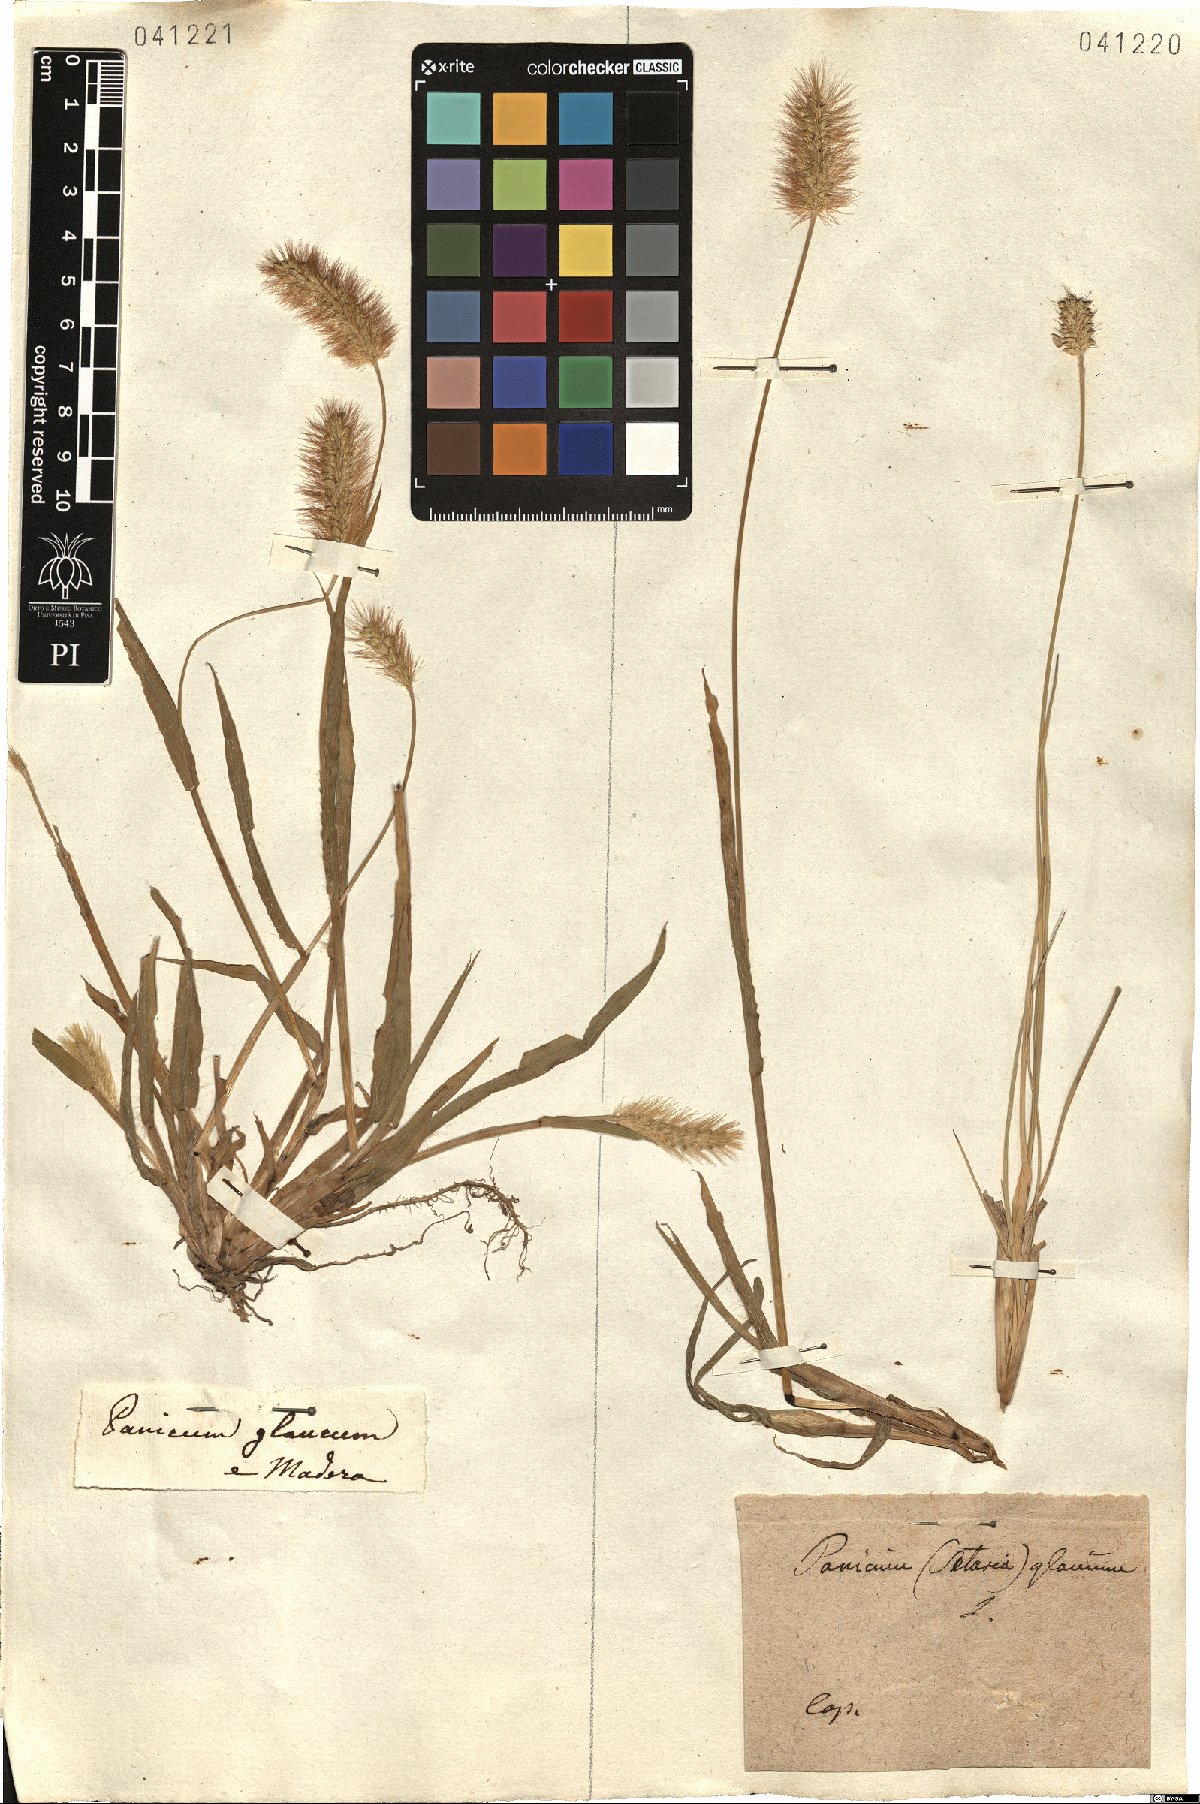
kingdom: Plantae
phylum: Tracheophyta
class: Liliopsida
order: Poales
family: Poaceae
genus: Cenchrus
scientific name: Cenchrus americanus
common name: Pearl millet
